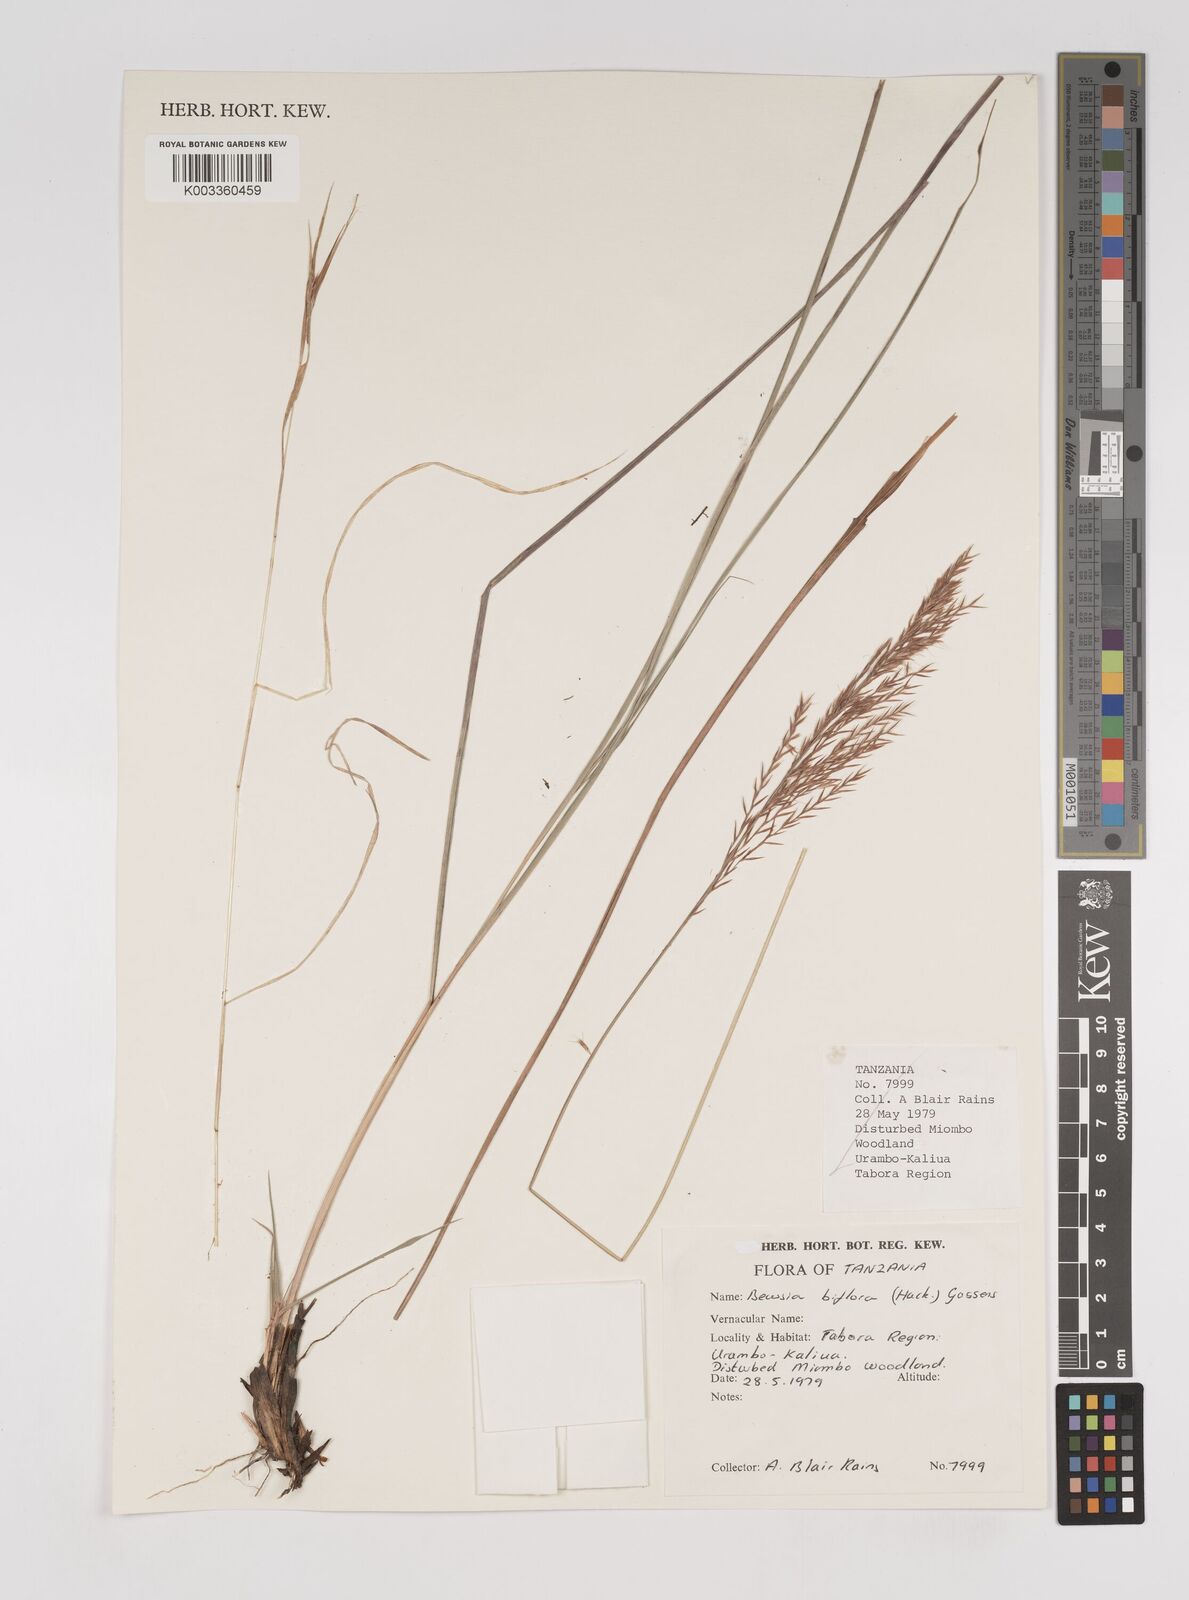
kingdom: Plantae
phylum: Tracheophyta
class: Liliopsida
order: Poales
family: Poaceae
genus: Bewsia
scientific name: Bewsia biflora
